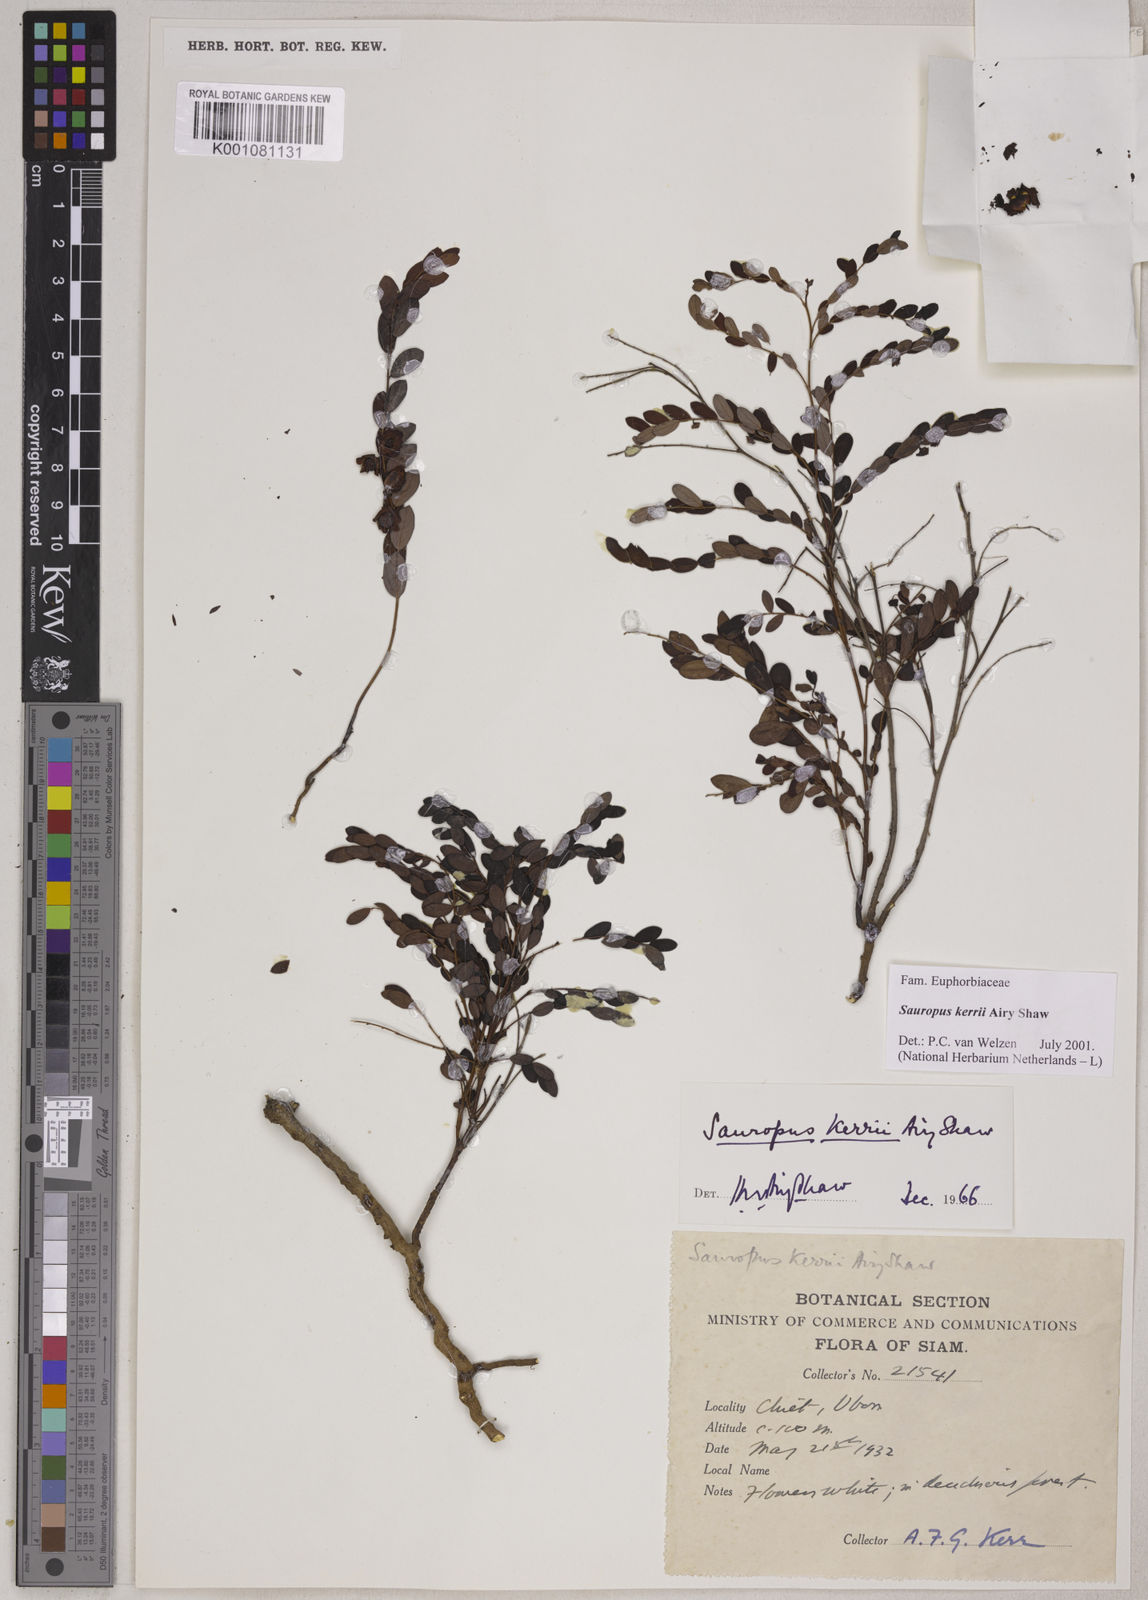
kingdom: Plantae
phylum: Tracheophyta
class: Magnoliopsida
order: Malpighiales
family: Phyllanthaceae
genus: Breynia
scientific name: Breynia kerrii
